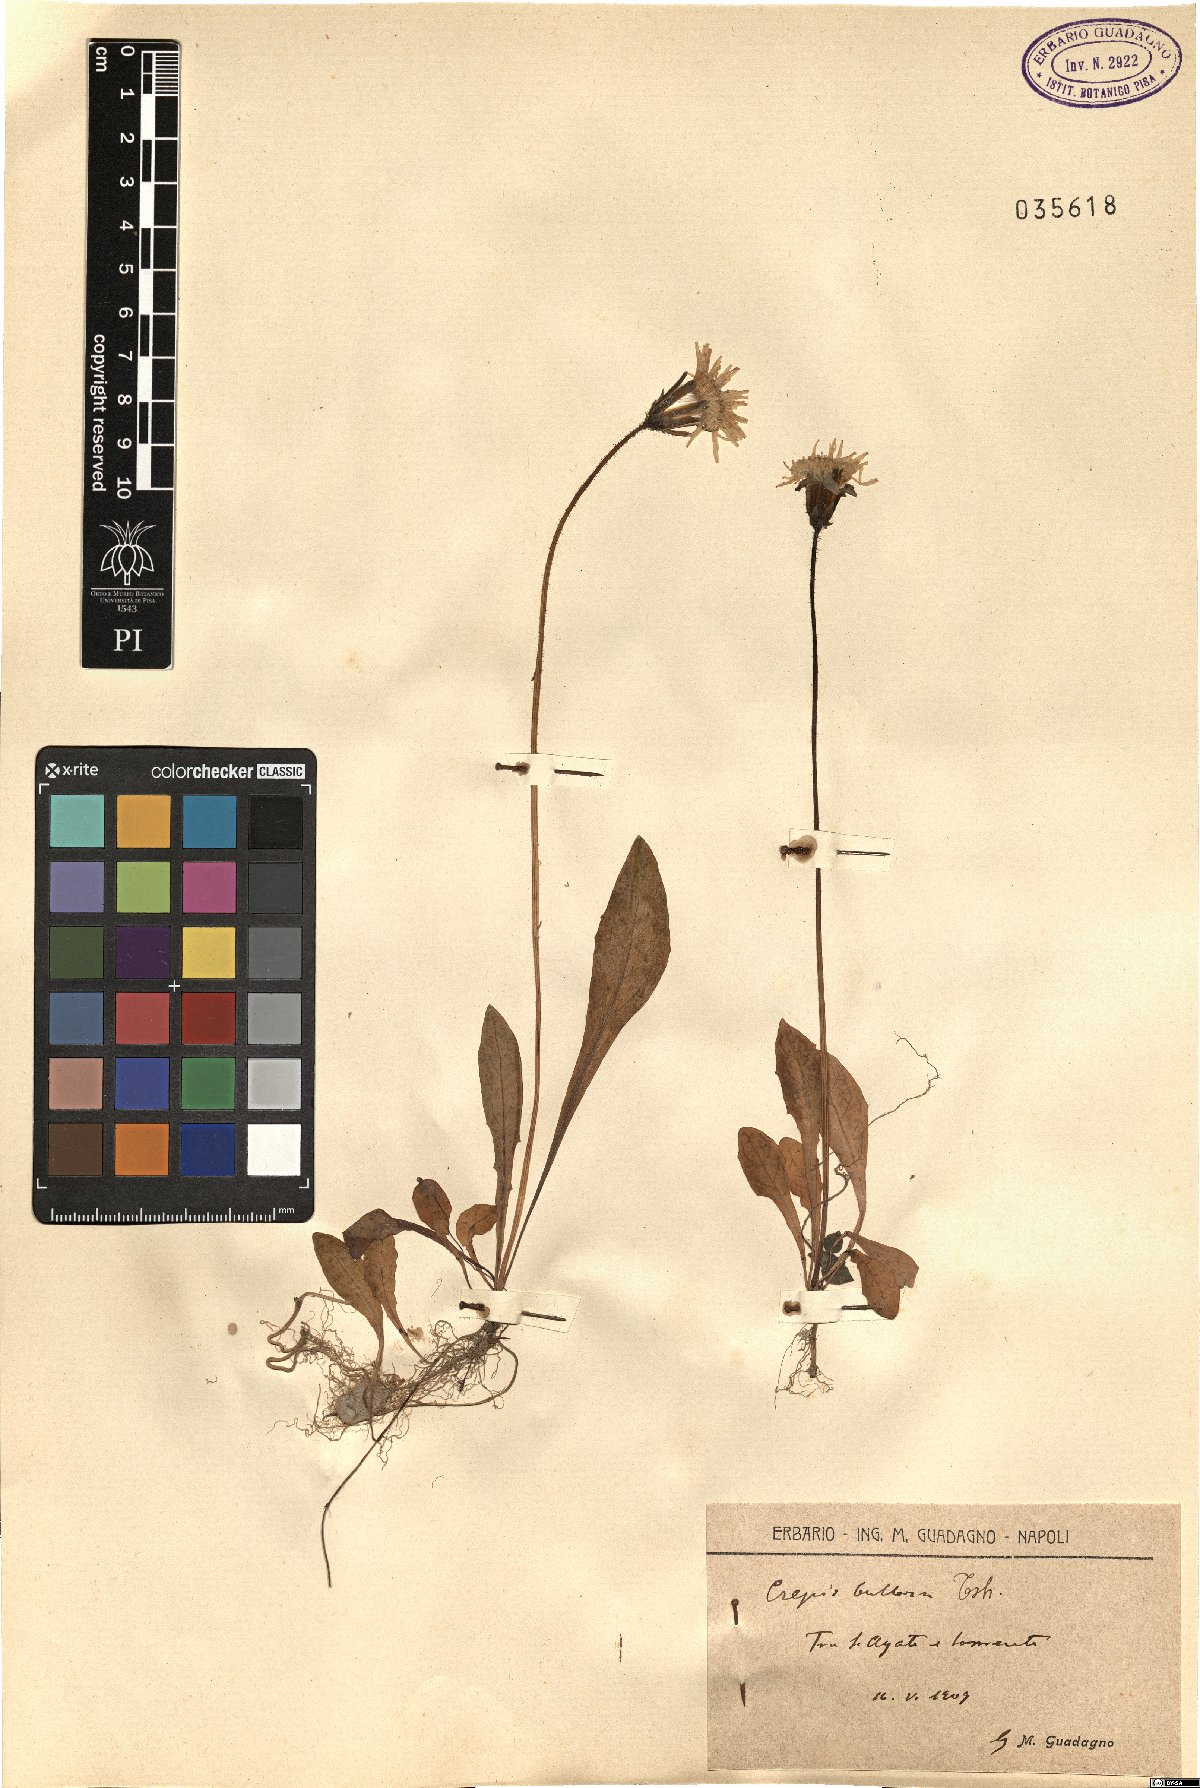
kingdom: Plantae
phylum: Tracheophyta
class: Magnoliopsida
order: Asterales
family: Asteraceae
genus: Aetheorhiza
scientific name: Aetheorhiza bulbosa
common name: Tuberous hawk's-beard
